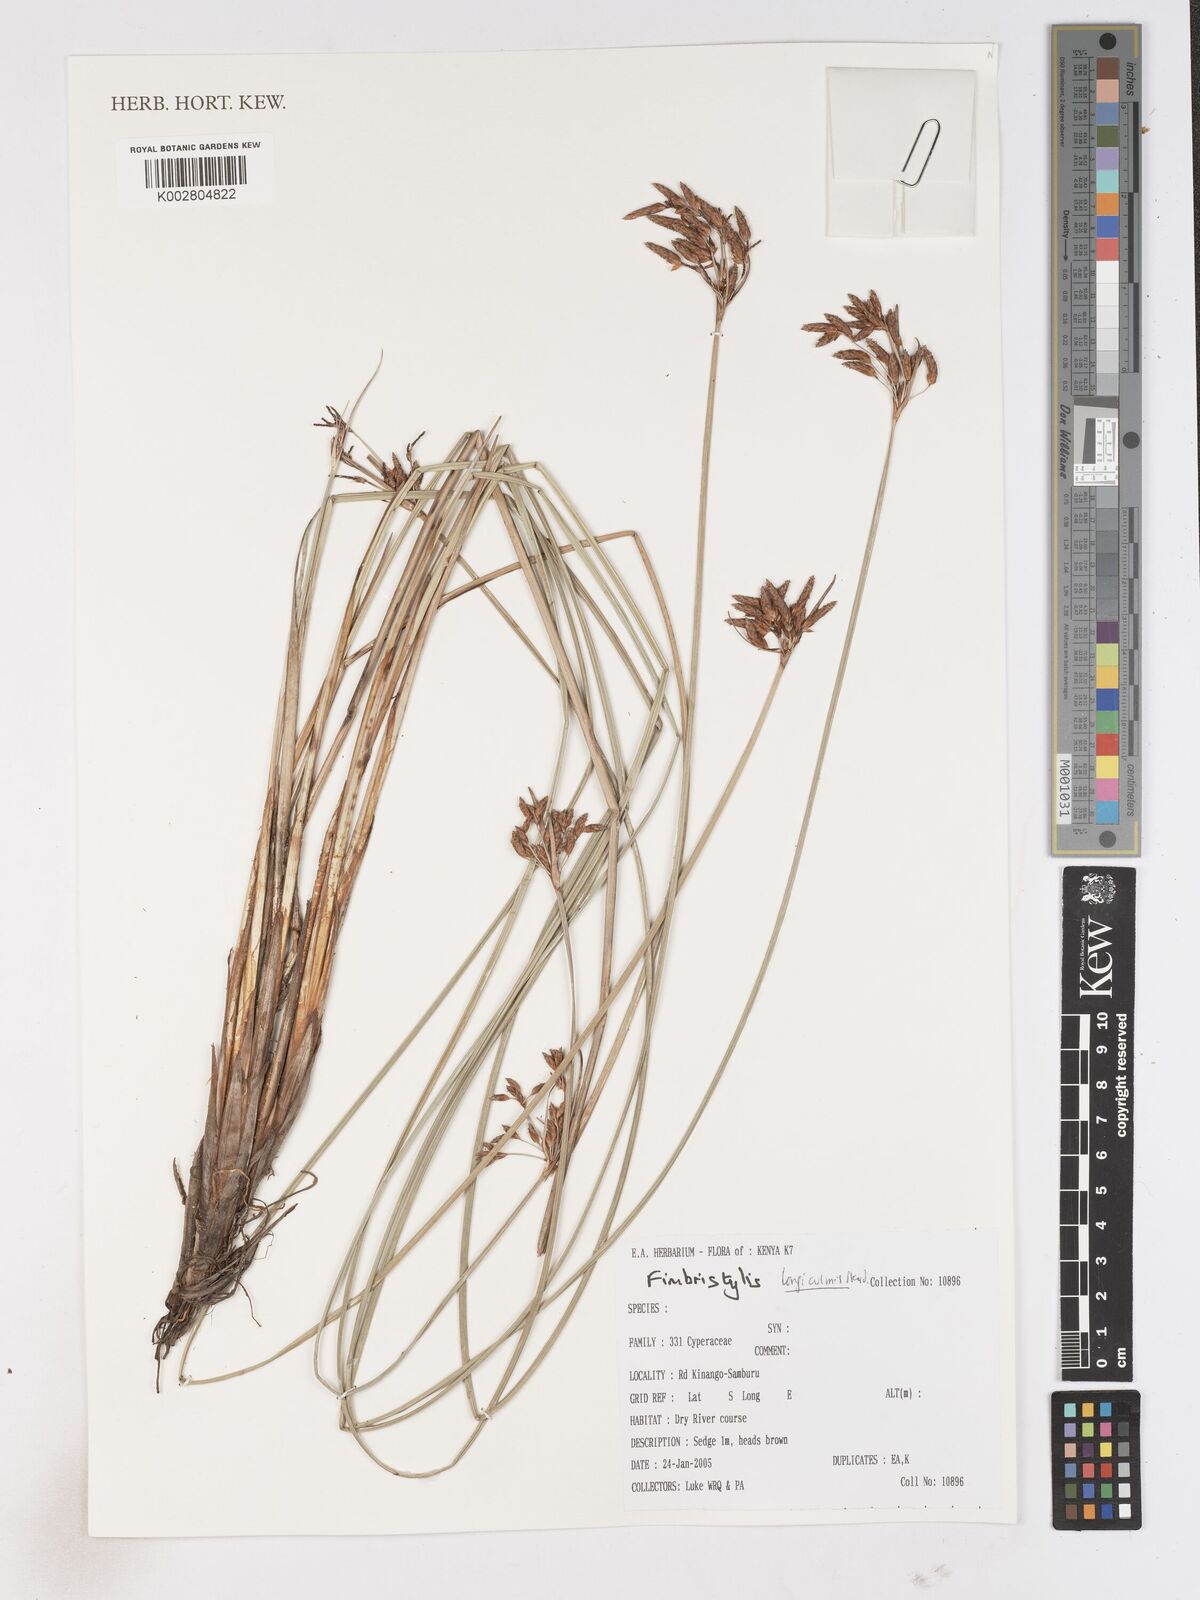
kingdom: Plantae
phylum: Tracheophyta
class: Liliopsida
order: Poales
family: Cyperaceae
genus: Fimbristylis
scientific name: Fimbristylis bivalvis
